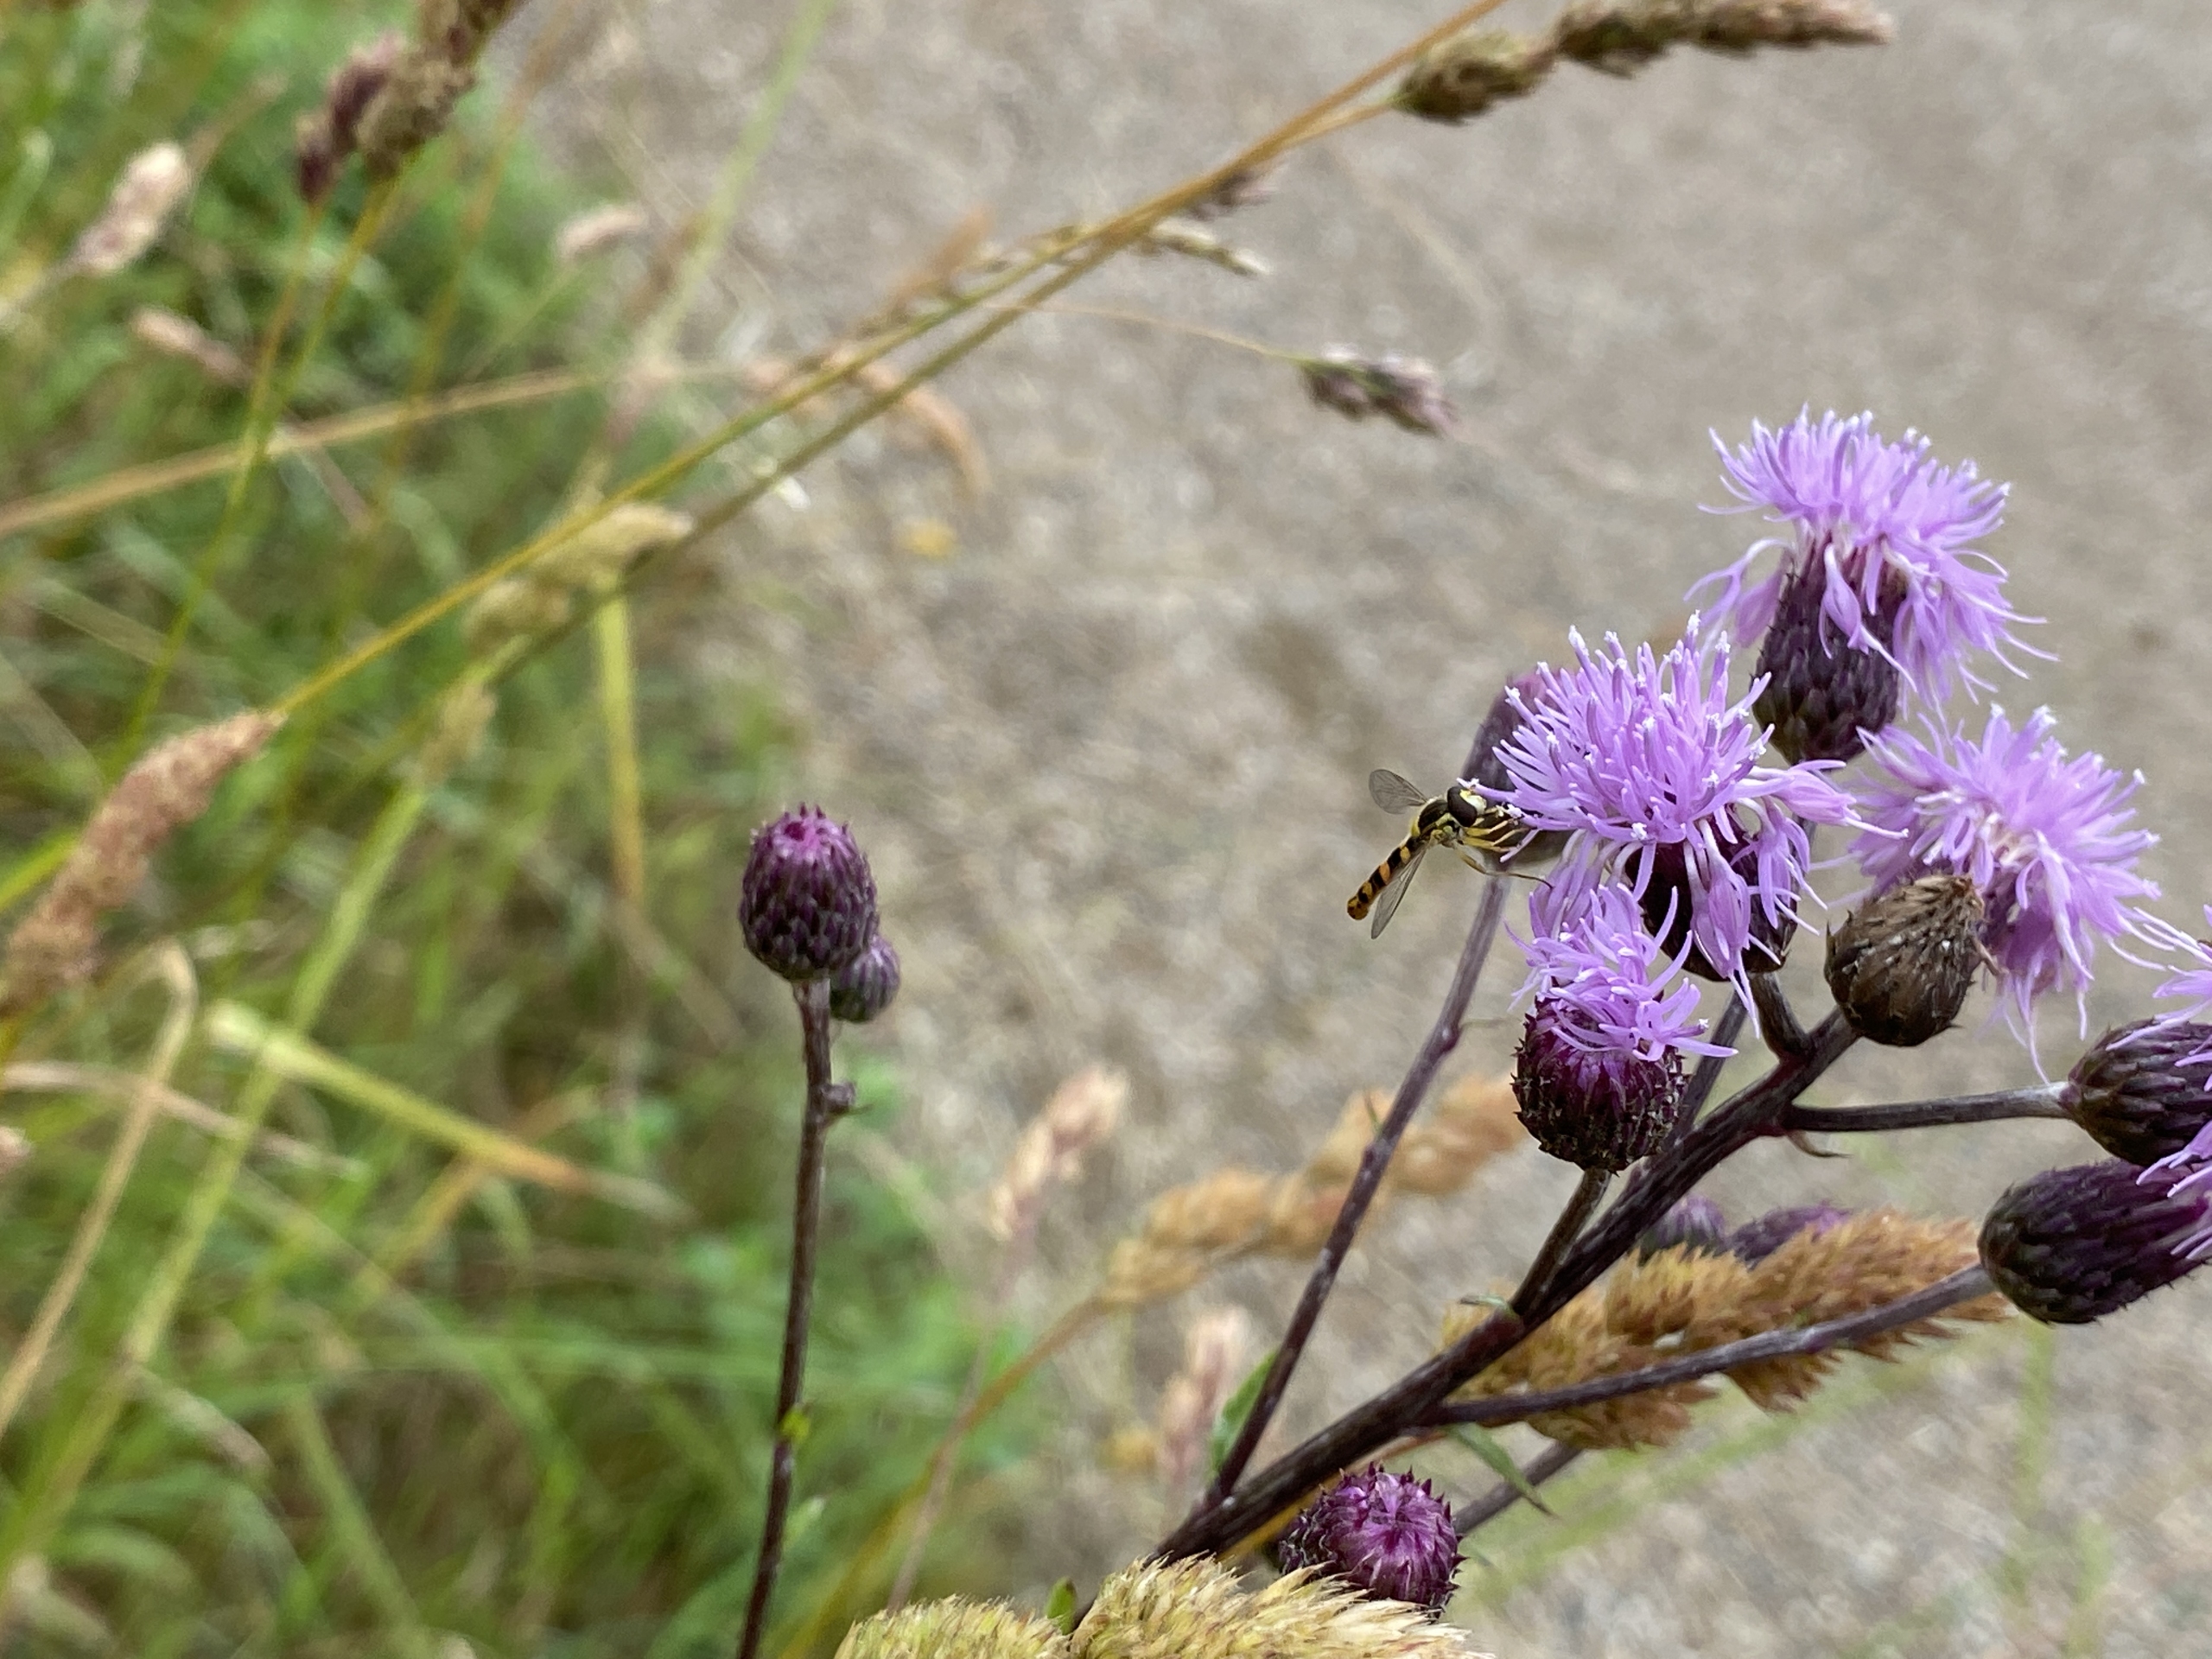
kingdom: Plantae
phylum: Tracheophyta
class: Magnoliopsida
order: Asterales
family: Asteraceae
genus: Cirsium
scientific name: Cirsium arvense
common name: Ager-tidsel
